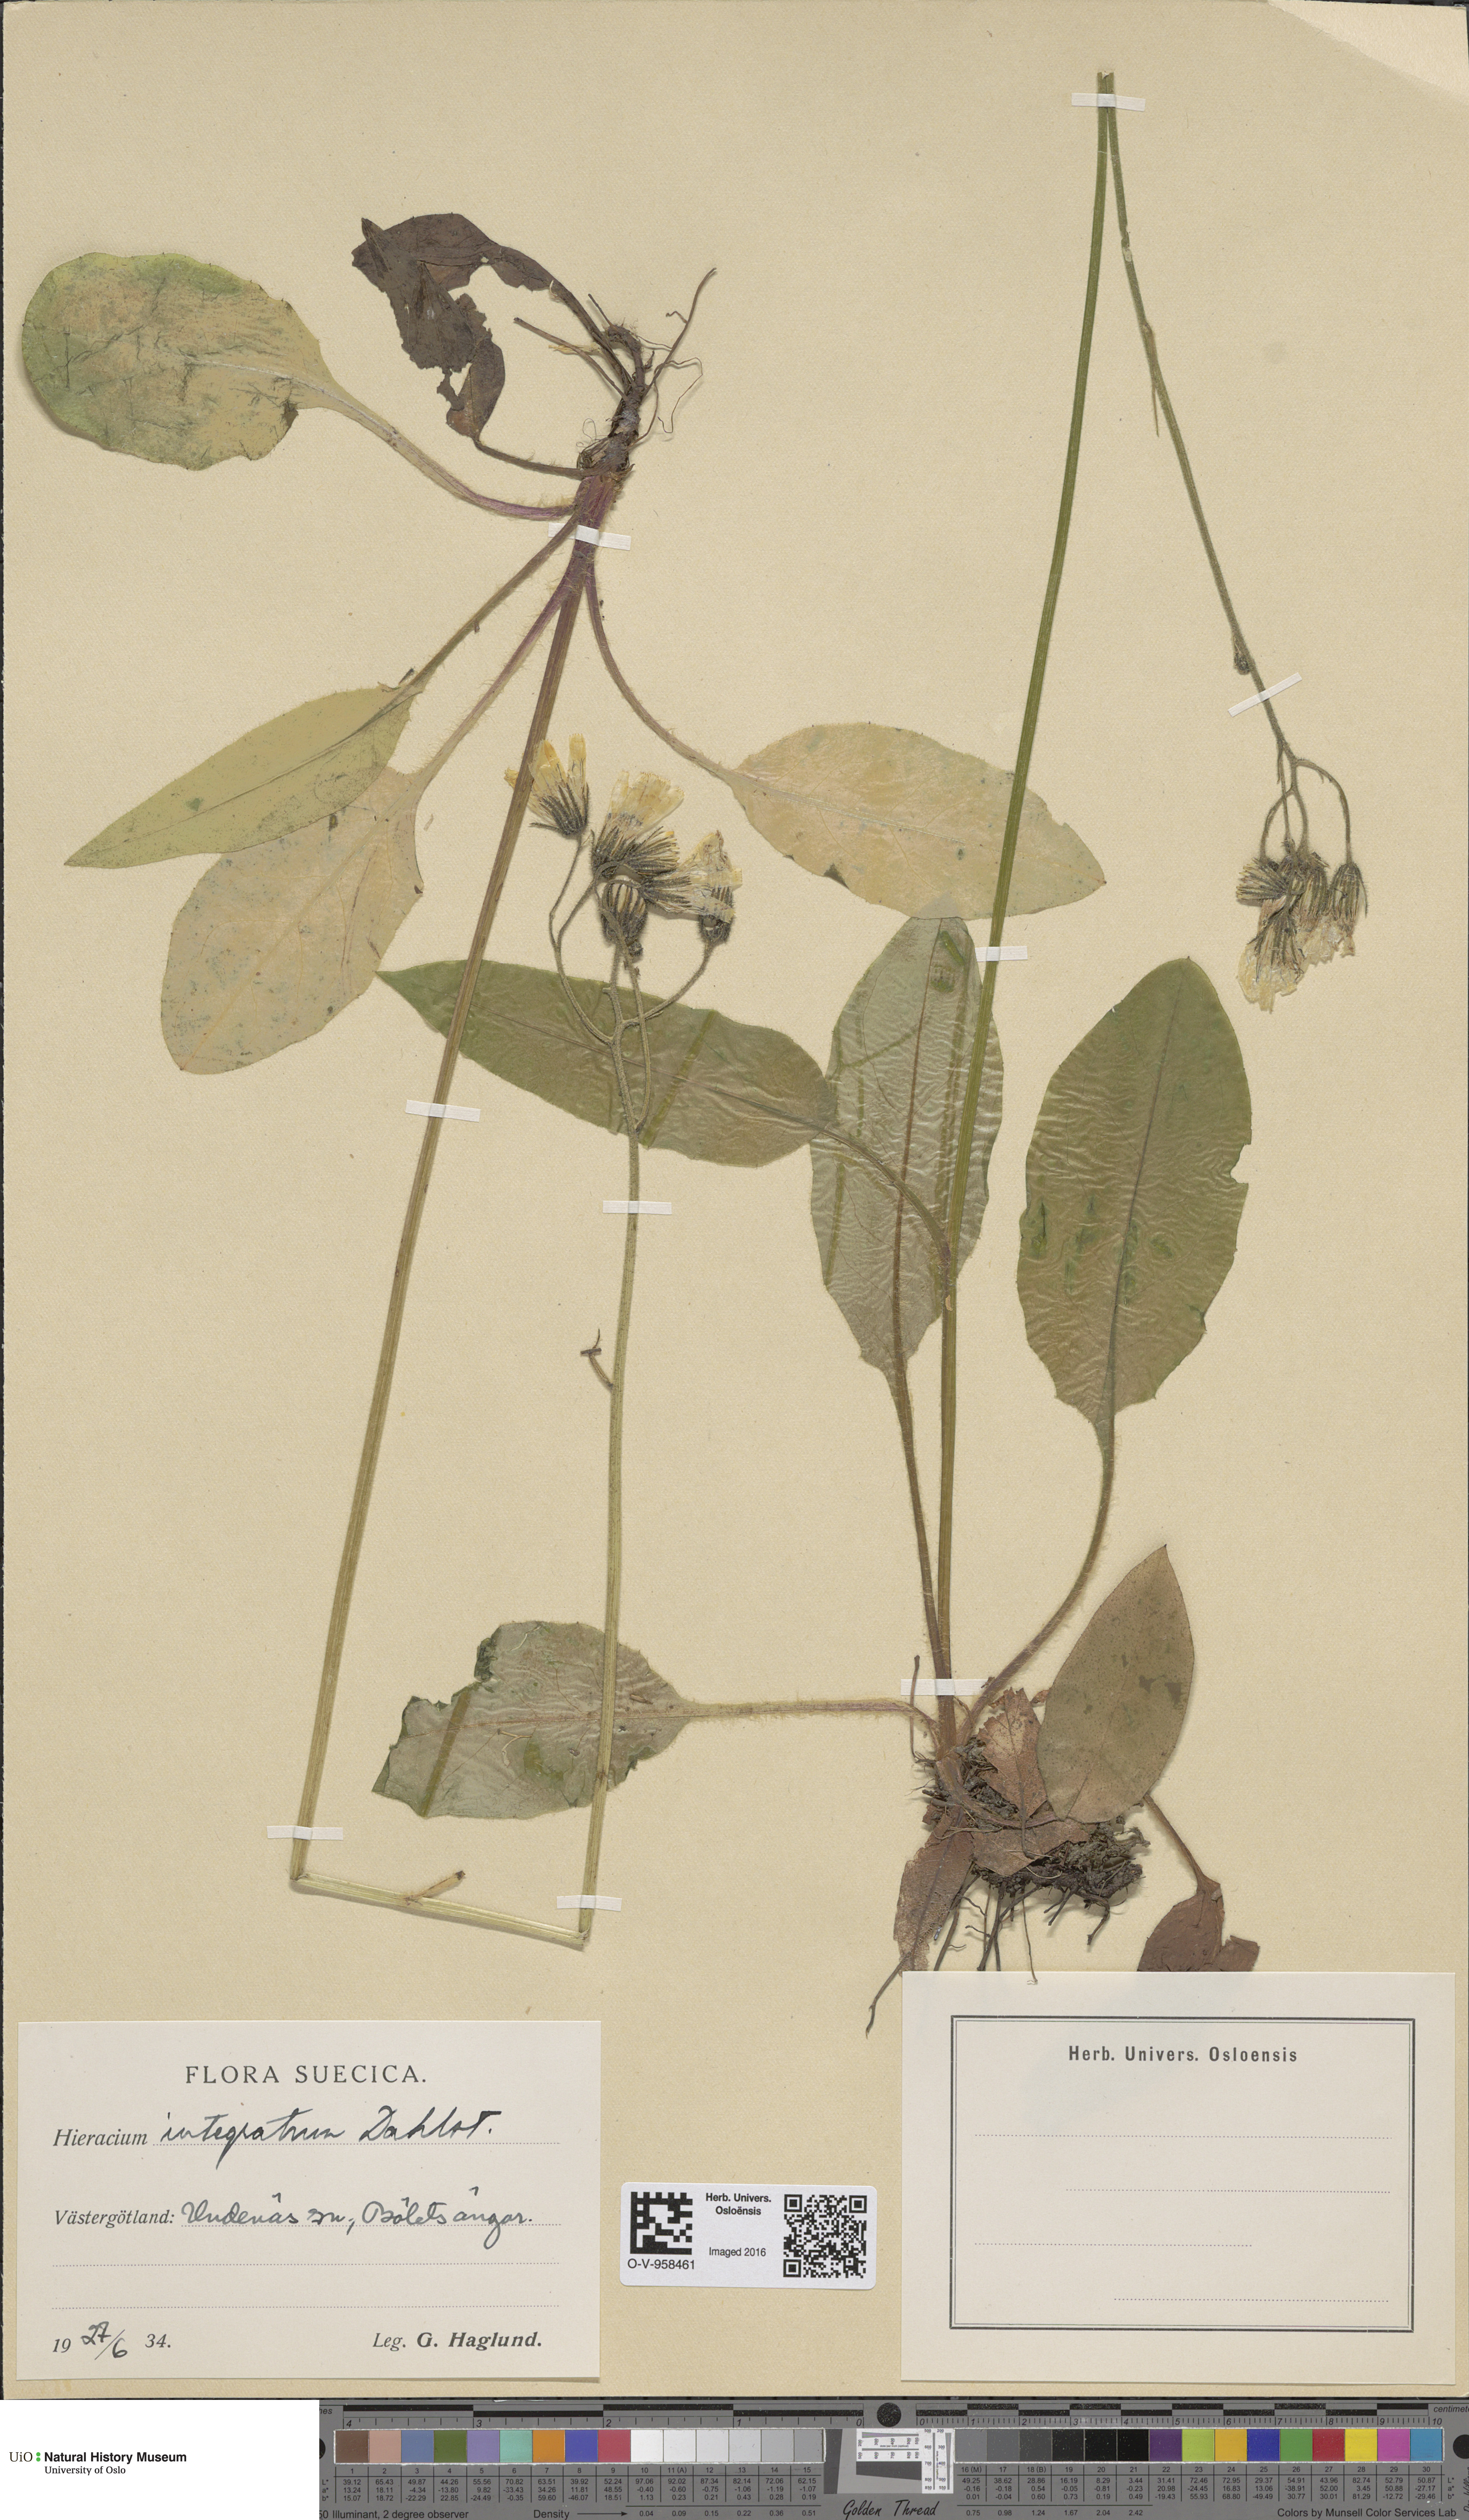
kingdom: Plantae
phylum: Tracheophyta
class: Magnoliopsida
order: Asterales
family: Asteraceae
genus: Hieracium
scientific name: Hieracium murorum
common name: Wall hawkweed
